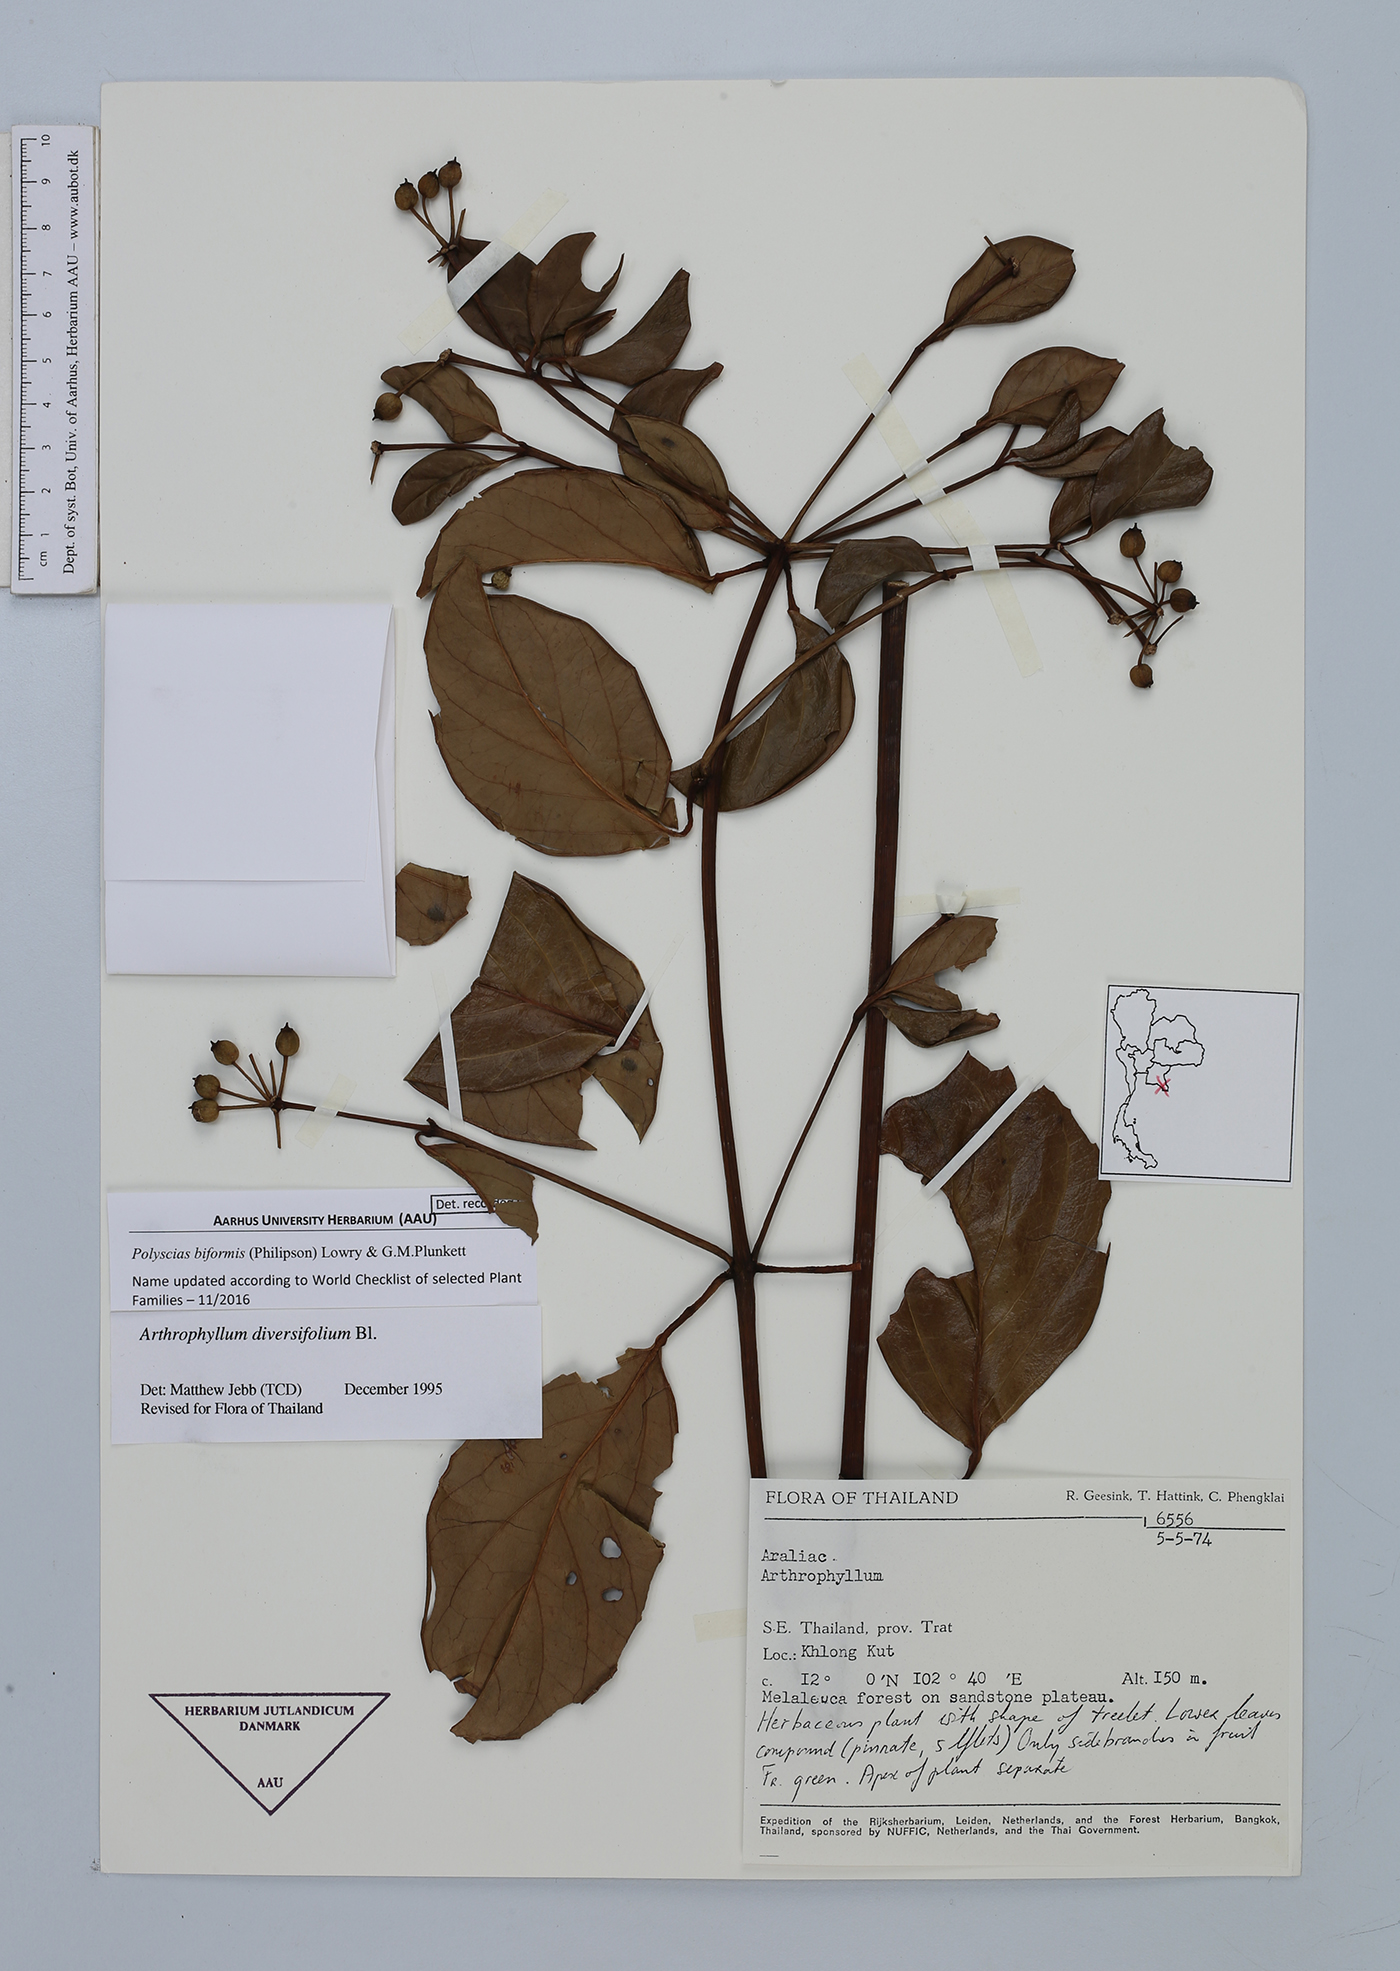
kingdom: Plantae
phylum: Tracheophyta
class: Magnoliopsida
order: Apiales
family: Araliaceae
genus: Polyscias
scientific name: Polyscias biformis
